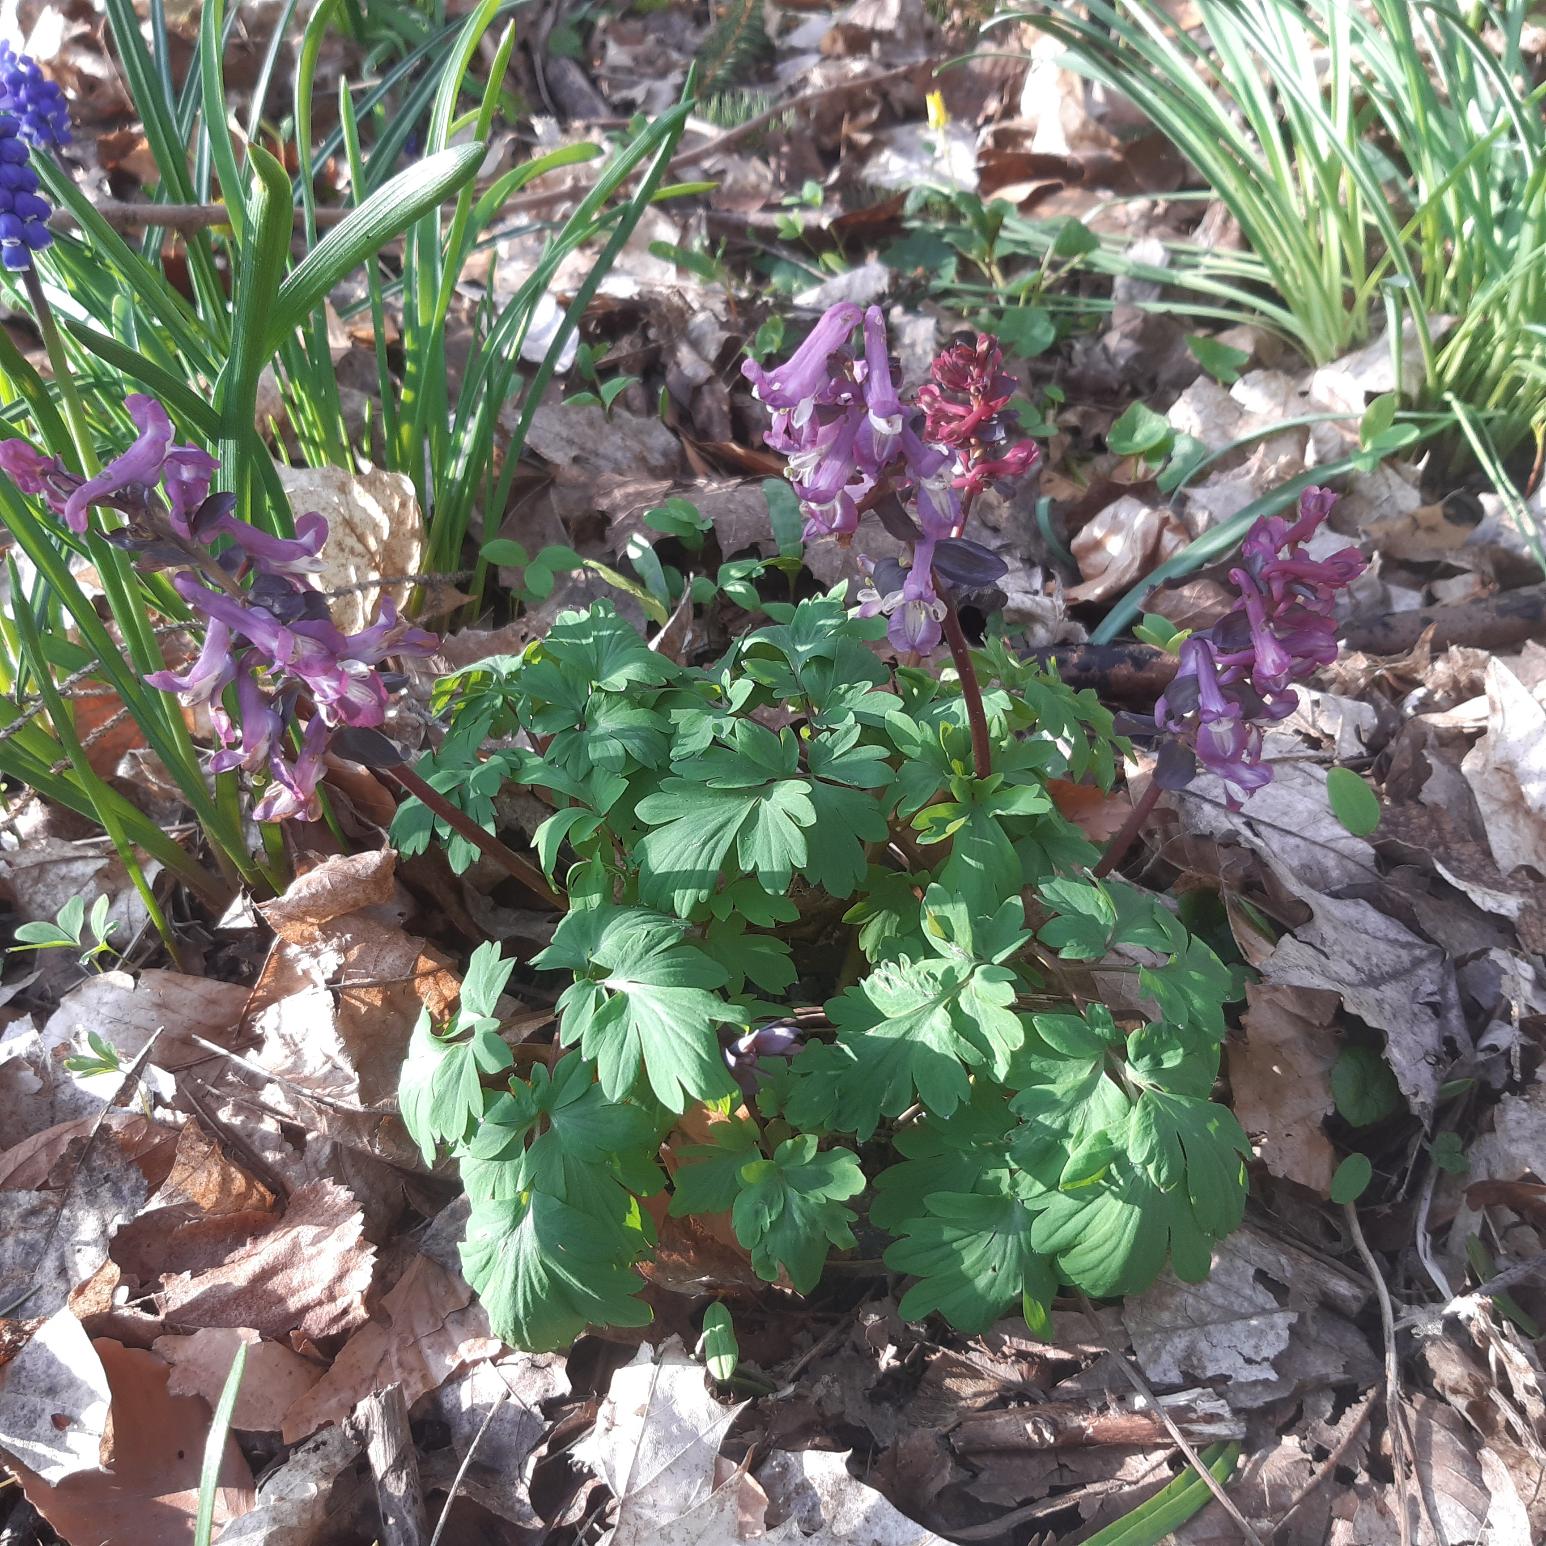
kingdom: Plantae
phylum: Tracheophyta
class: Magnoliopsida
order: Ranunculales
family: Papaveraceae
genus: Corydalis
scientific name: Corydalis cava
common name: Hulrodet lærkespore
